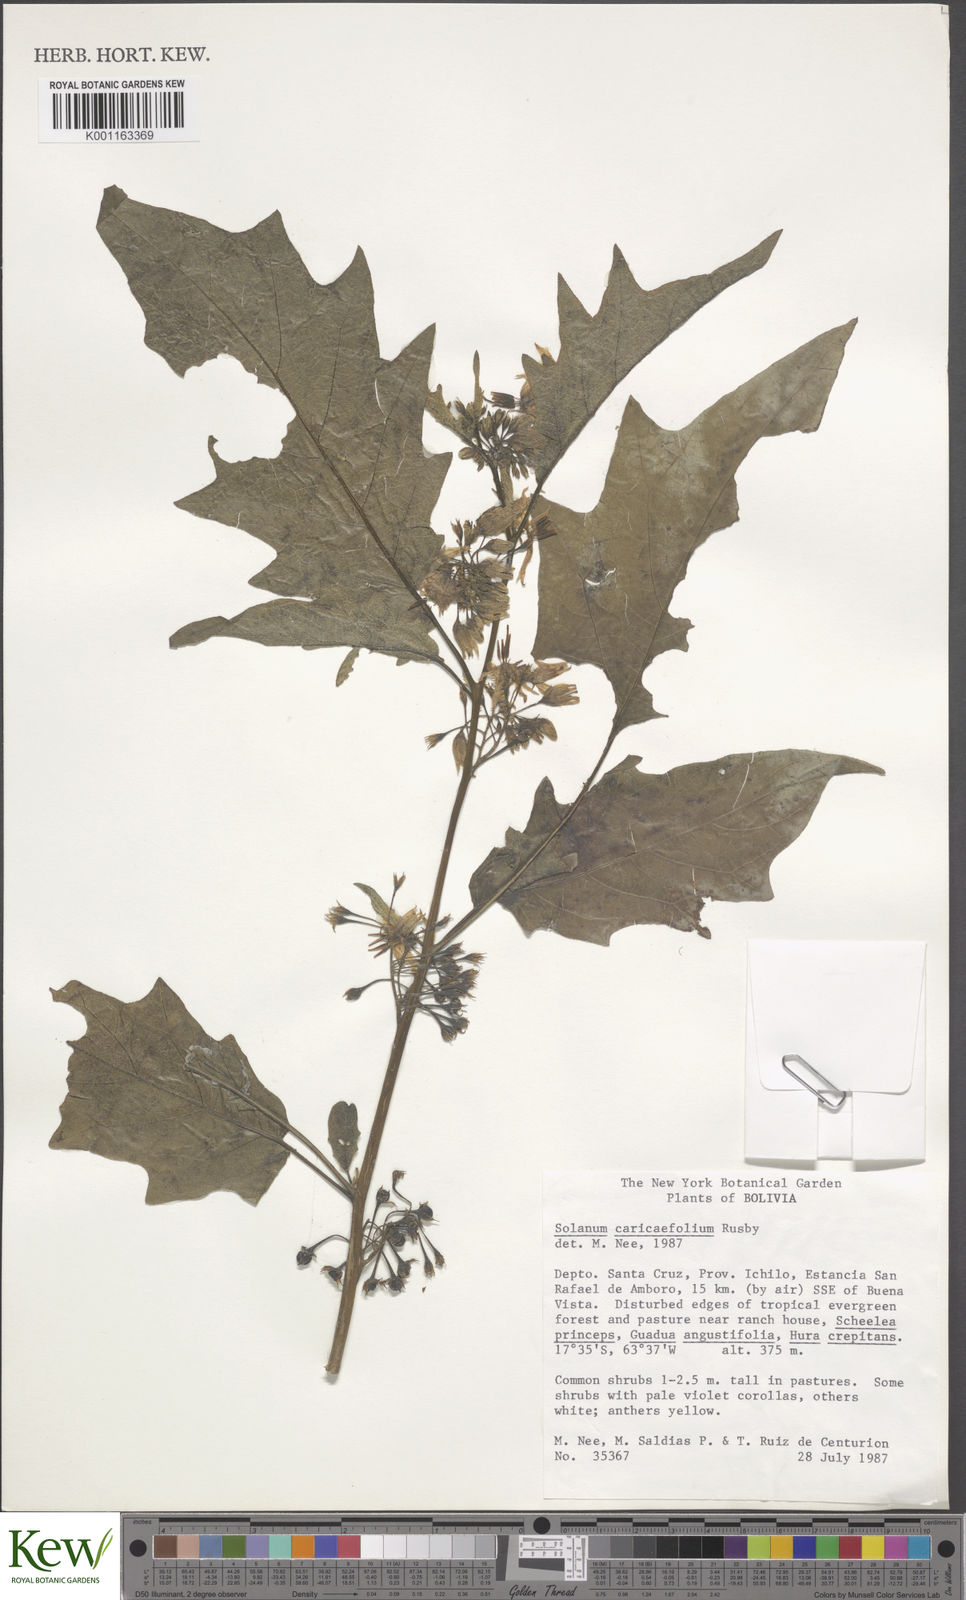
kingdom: Plantae
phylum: Tracheophyta
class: Magnoliopsida
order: Solanales
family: Solanaceae
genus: Solanum
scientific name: Solanum caricaefolium
